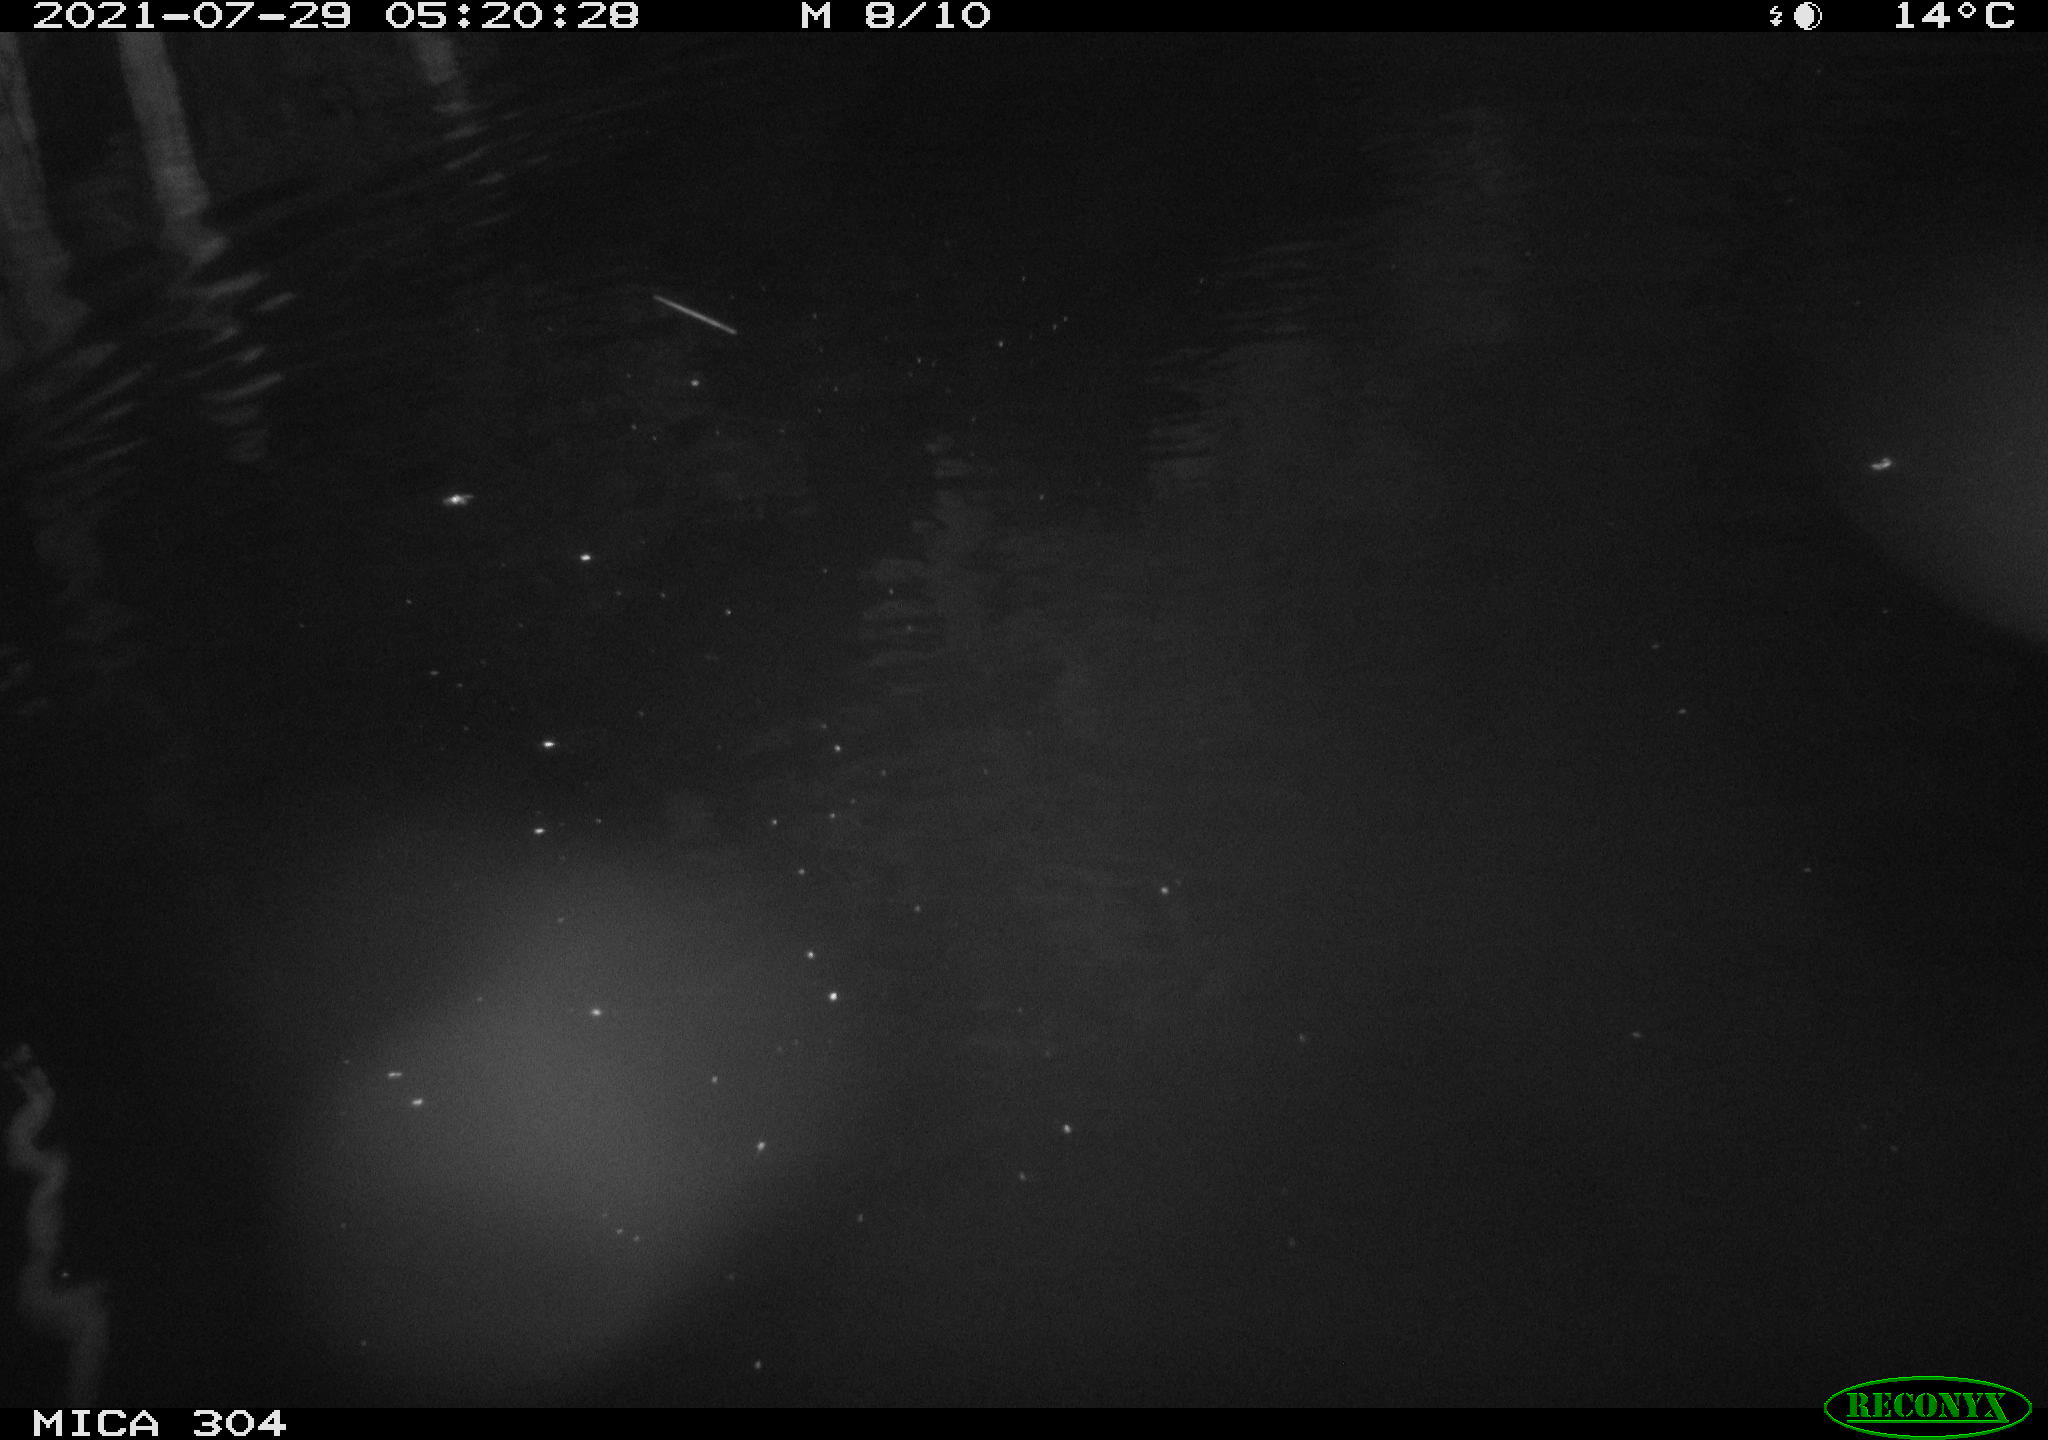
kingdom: Animalia
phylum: Chordata
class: Aves
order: Anseriformes
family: Anatidae
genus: Anas
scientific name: Anas platyrhynchos
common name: Mallard
